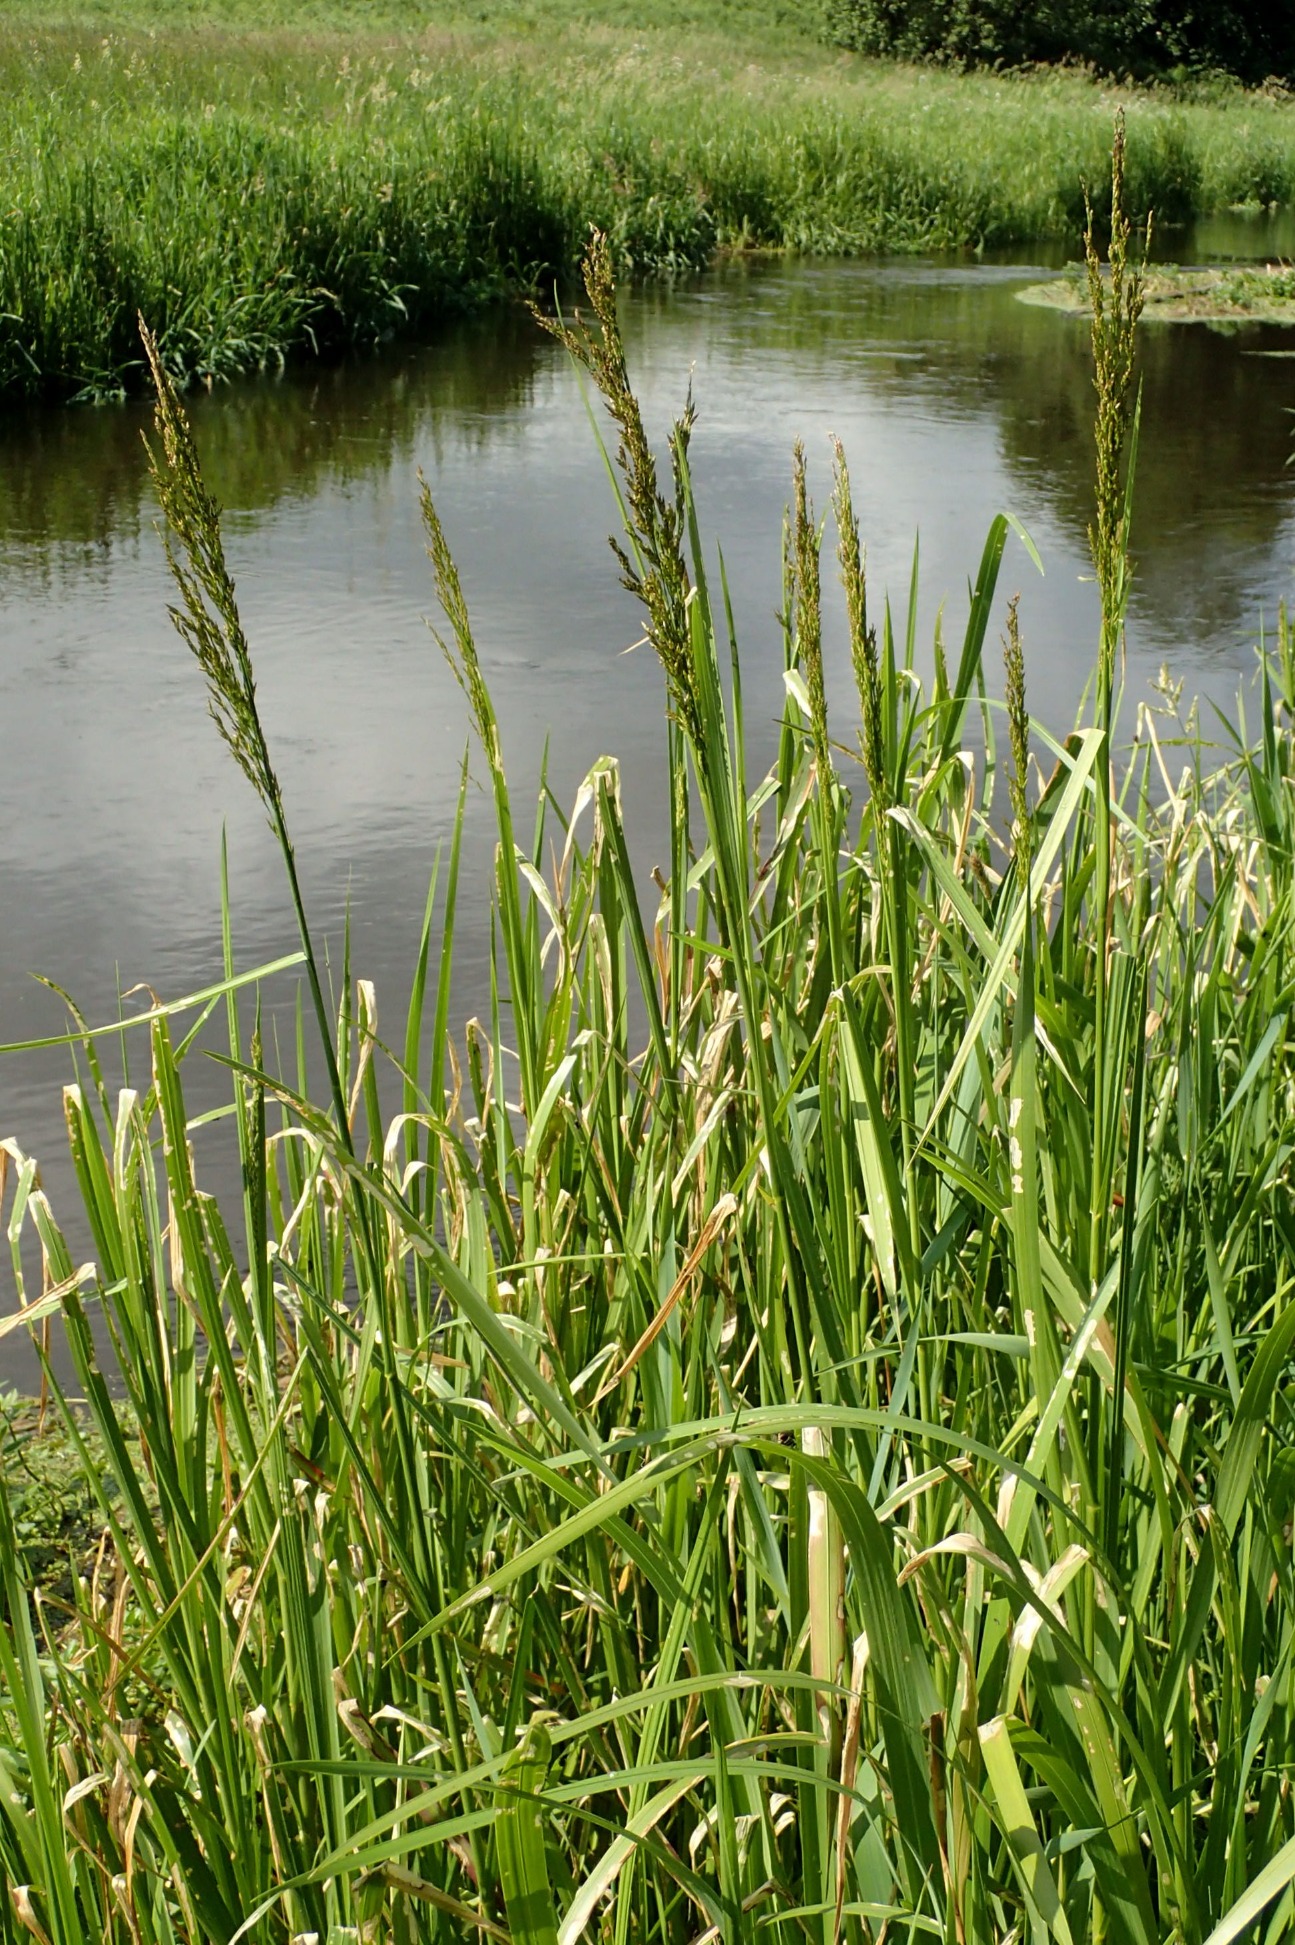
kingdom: Plantae
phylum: Tracheophyta
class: Liliopsida
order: Poales
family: Poaceae
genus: Glyceria
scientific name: Glyceria maxima
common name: Høj sødgræs
